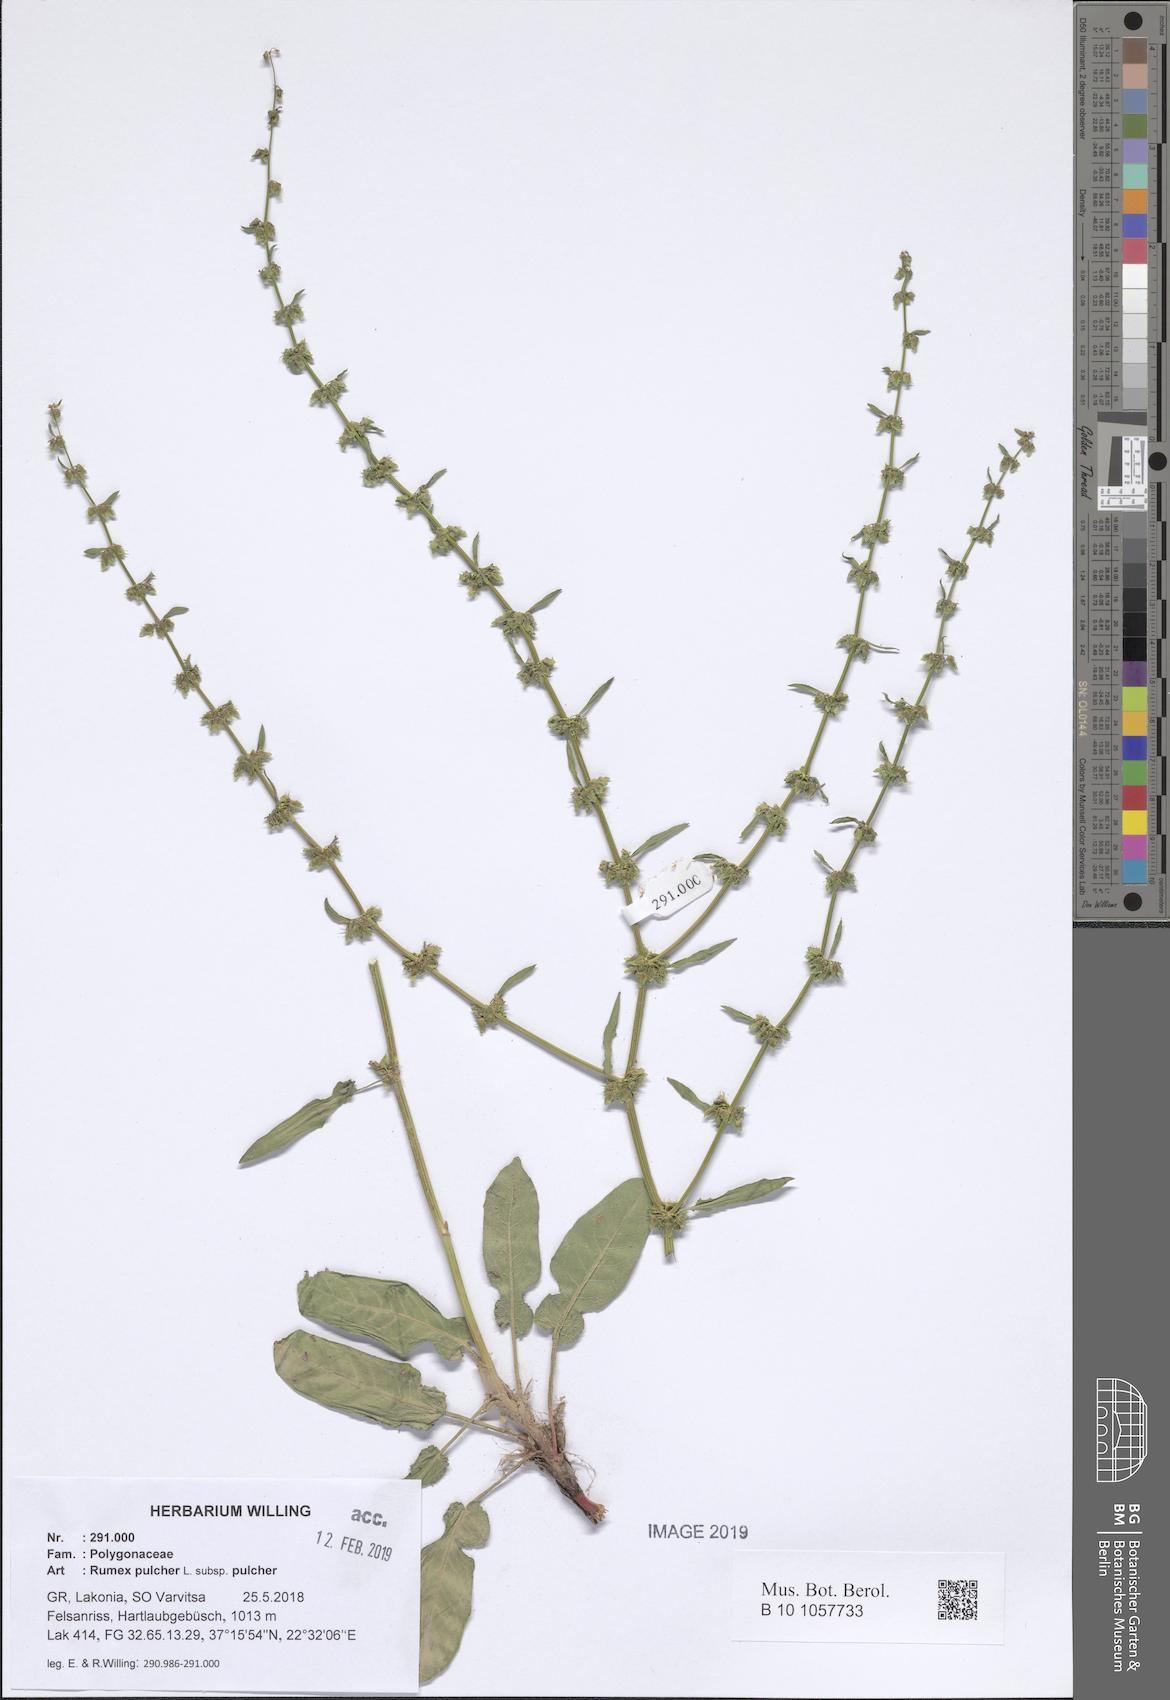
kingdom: Plantae
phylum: Tracheophyta
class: Magnoliopsida
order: Caryophyllales
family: Polygonaceae
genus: Rumex
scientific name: Rumex pulcher
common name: Fiddle dock
